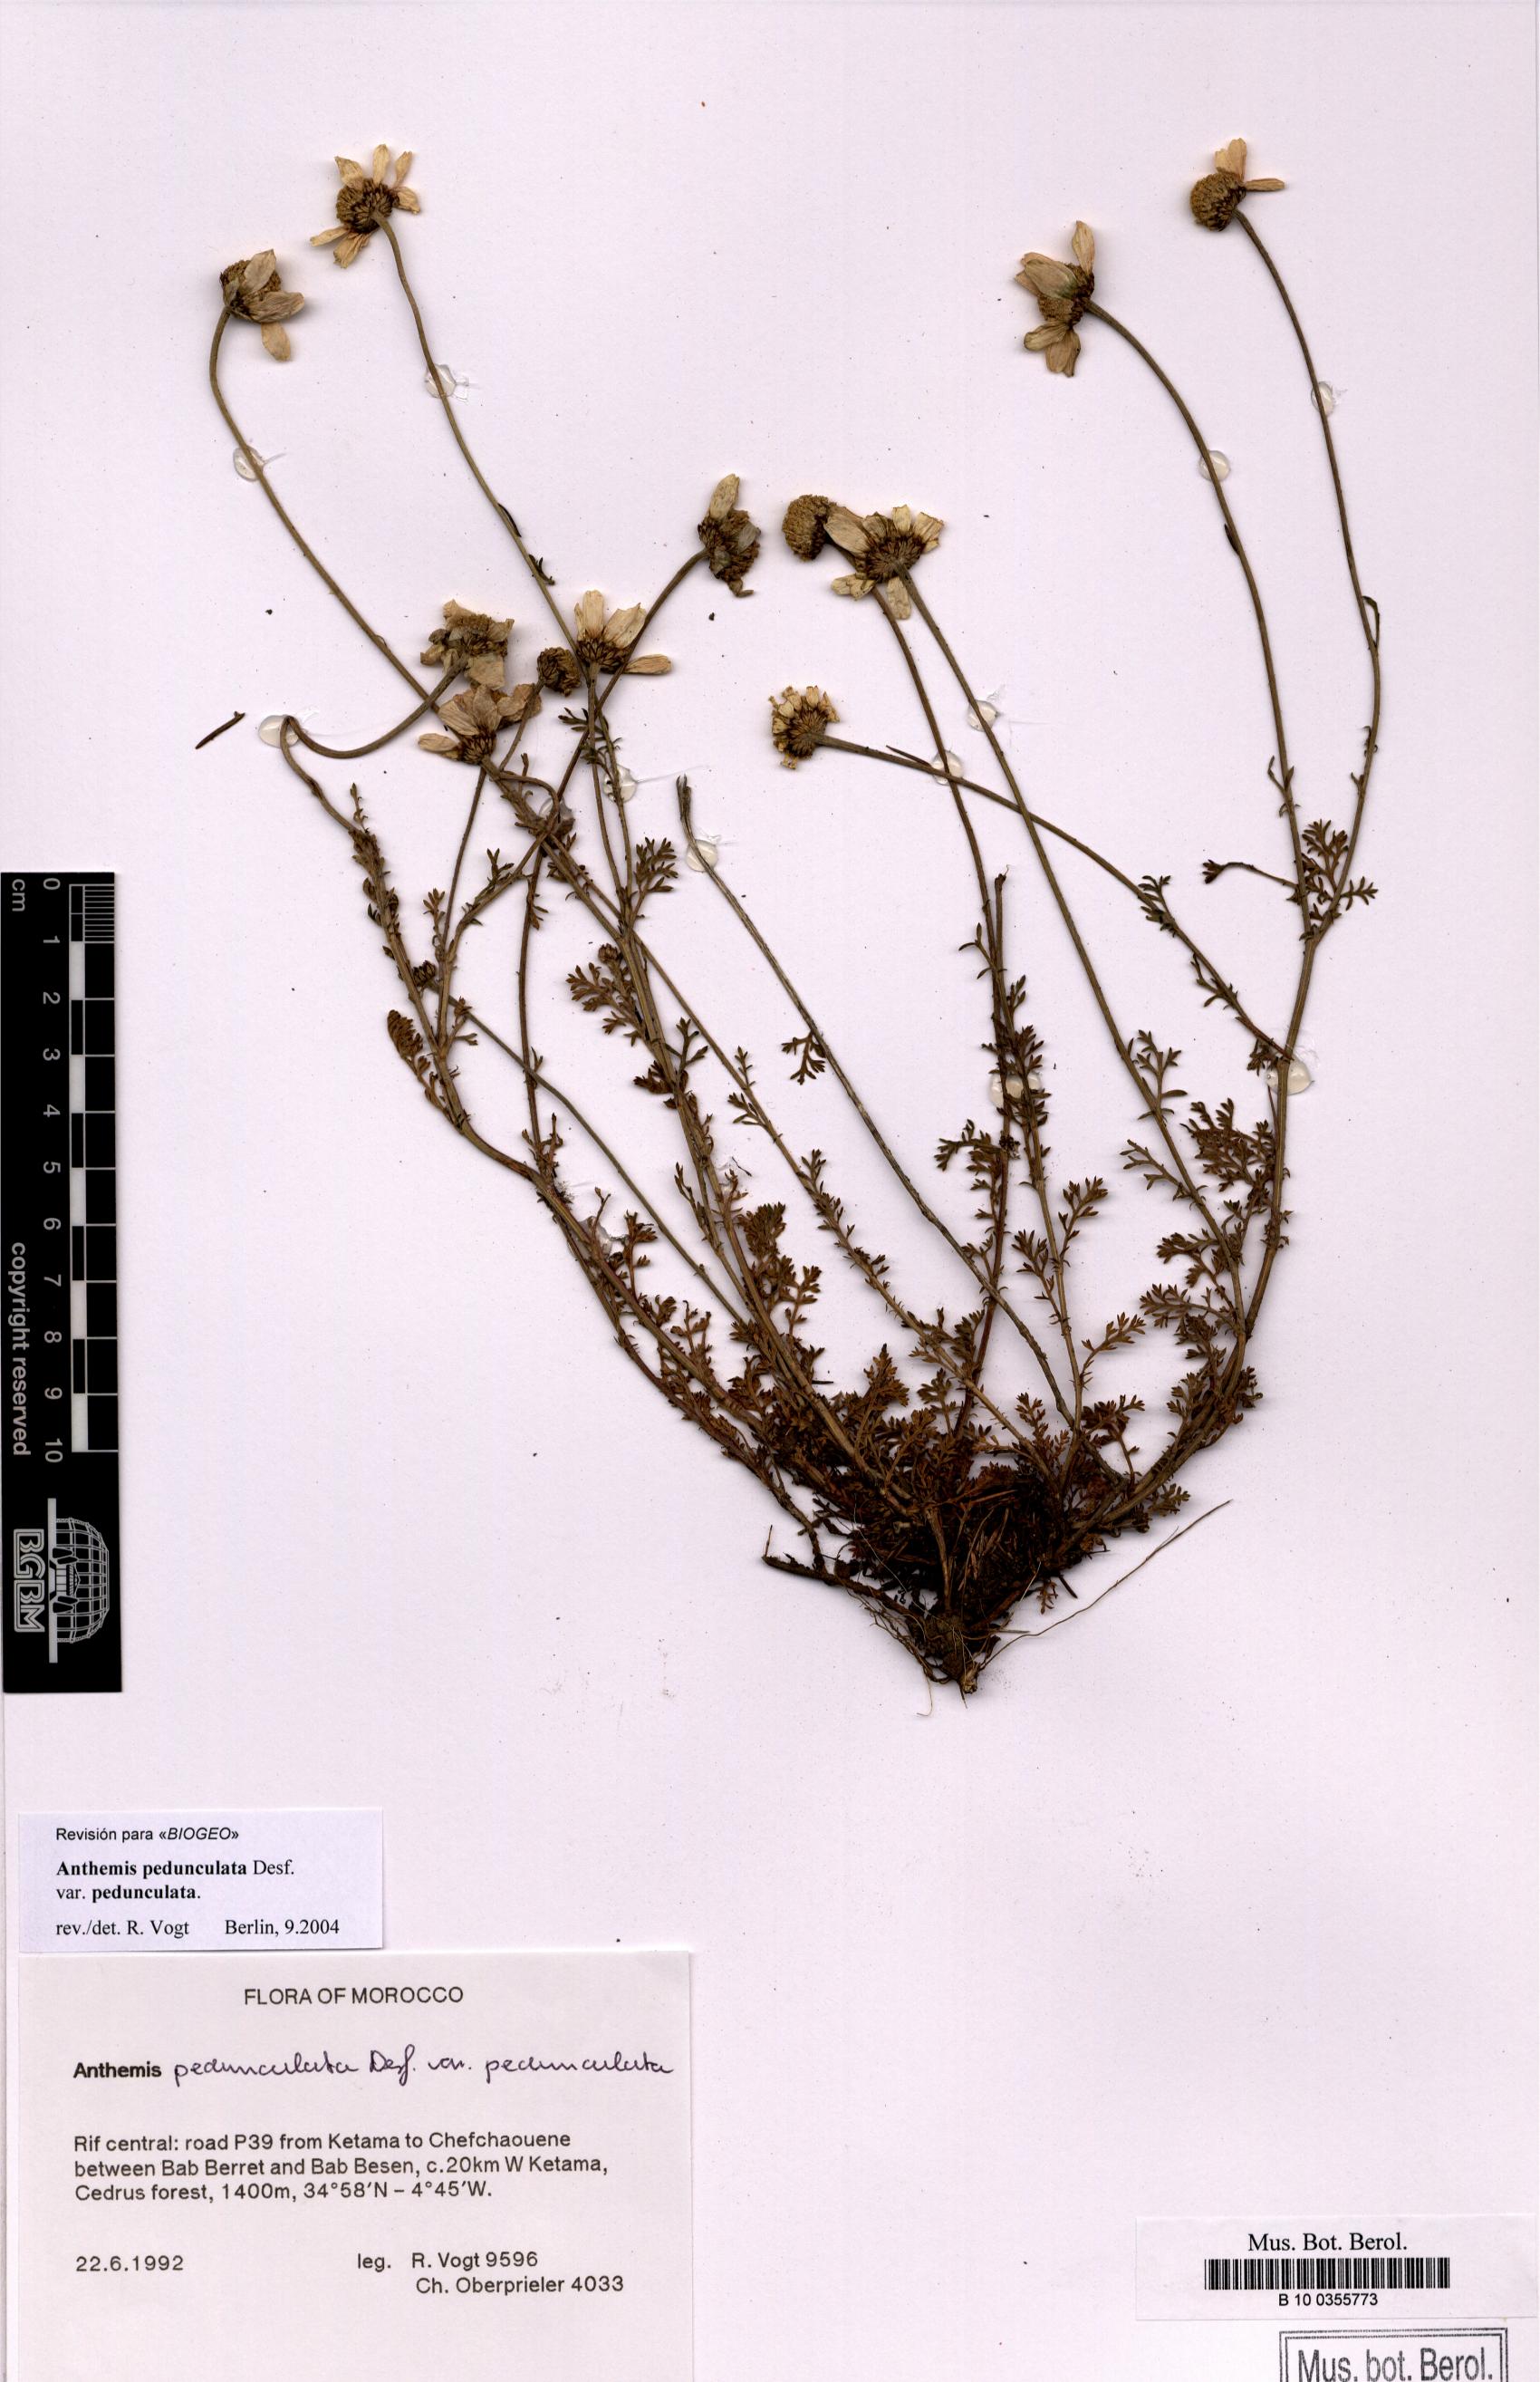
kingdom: Plantae
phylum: Tracheophyta
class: Magnoliopsida
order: Asterales
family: Asteraceae
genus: Anthemis
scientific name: Anthemis pedunculata
